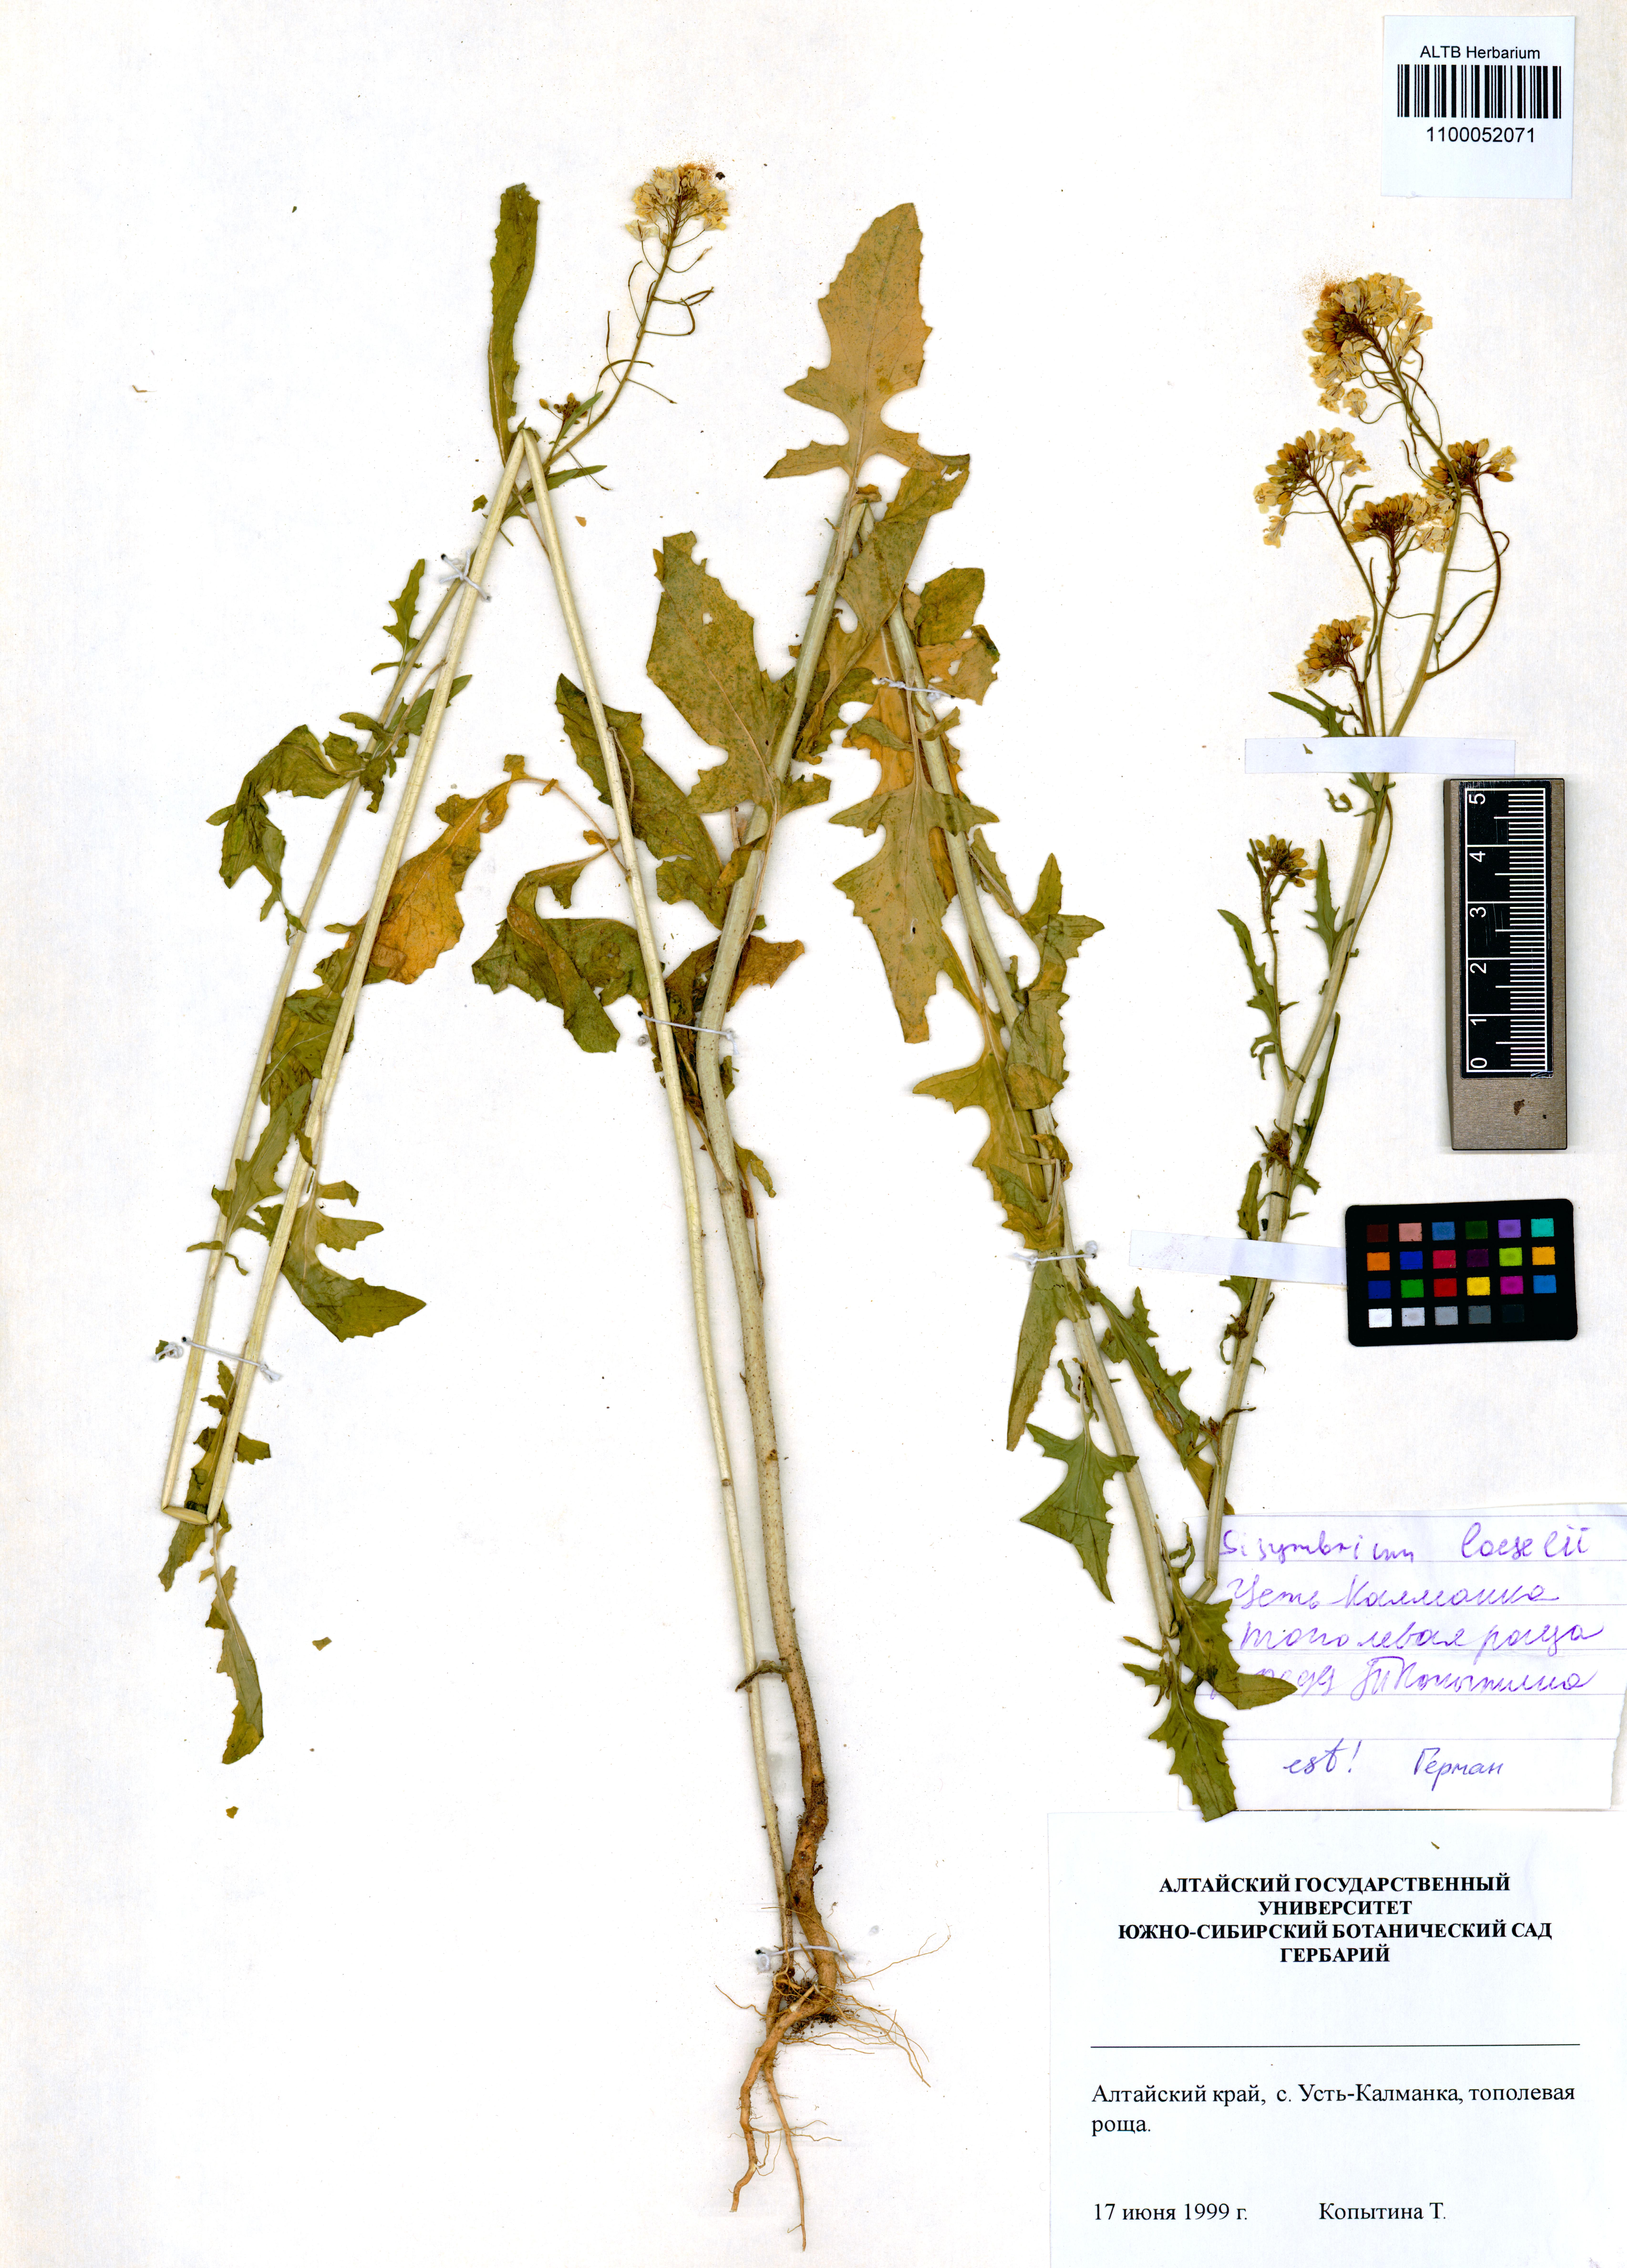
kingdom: Plantae
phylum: Tracheophyta
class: Magnoliopsida
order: Brassicales
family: Brassicaceae
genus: Sisymbrium
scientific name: Sisymbrium loeselii
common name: False london-rocket
